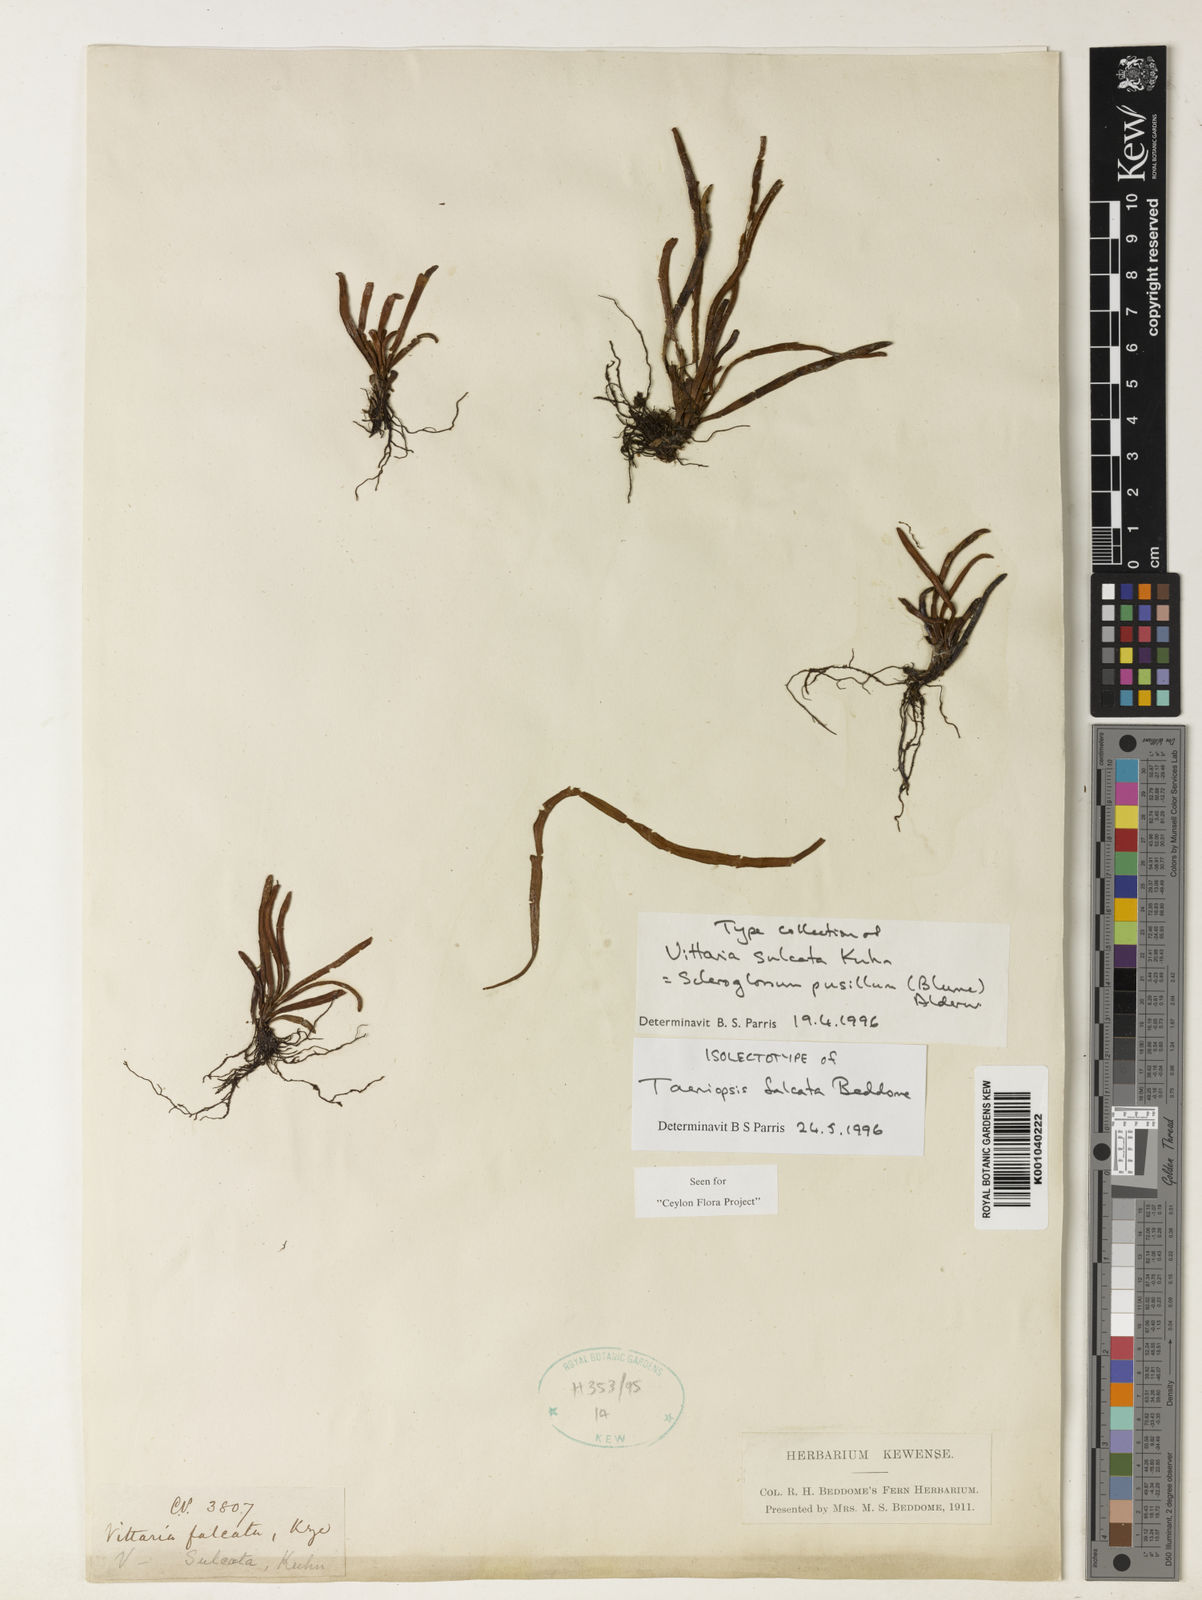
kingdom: Plantae
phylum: Tracheophyta
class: Polypodiopsida
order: Polypodiales
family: Polypodiaceae
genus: Scleroglossum
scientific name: Scleroglossum sulcatum
